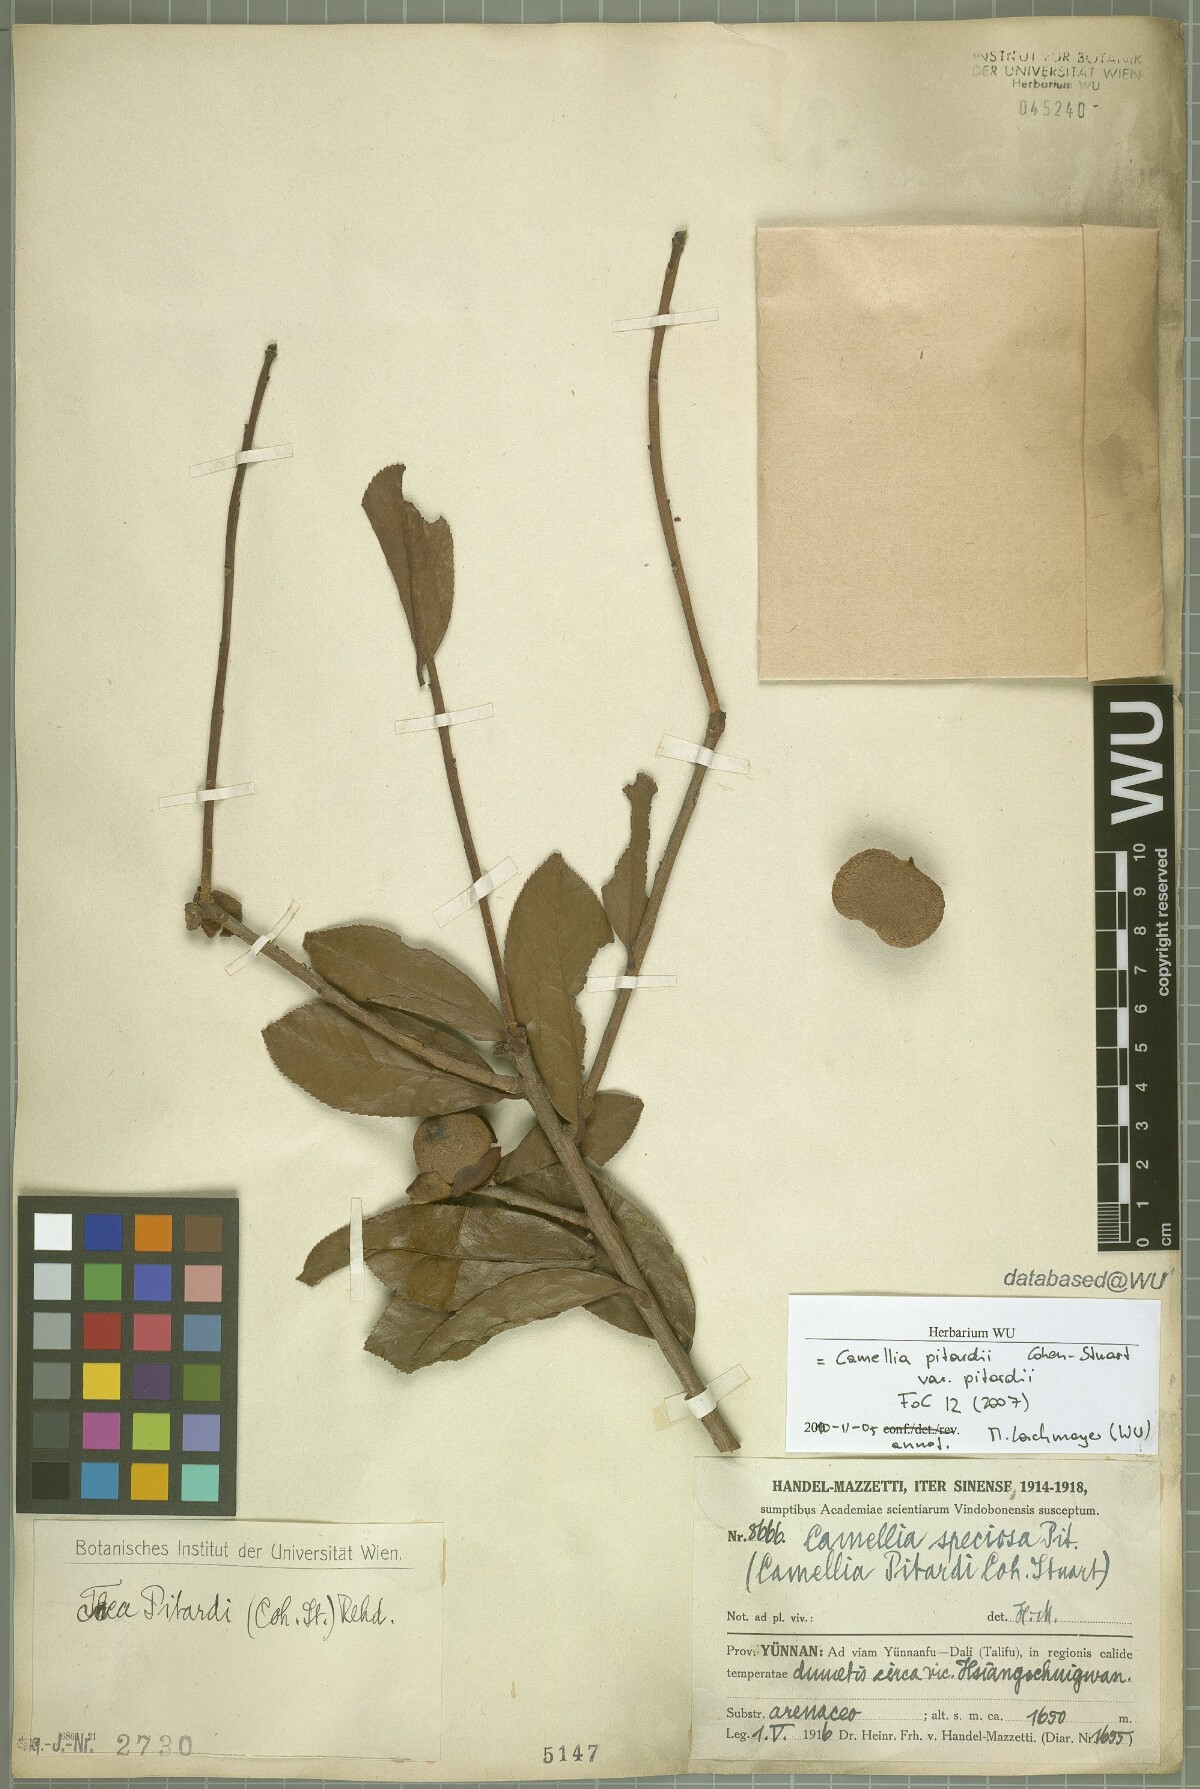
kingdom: Plantae
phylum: Tracheophyta
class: Magnoliopsida
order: Ericales
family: Theaceae
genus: Camellia
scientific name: Camellia pitardii
